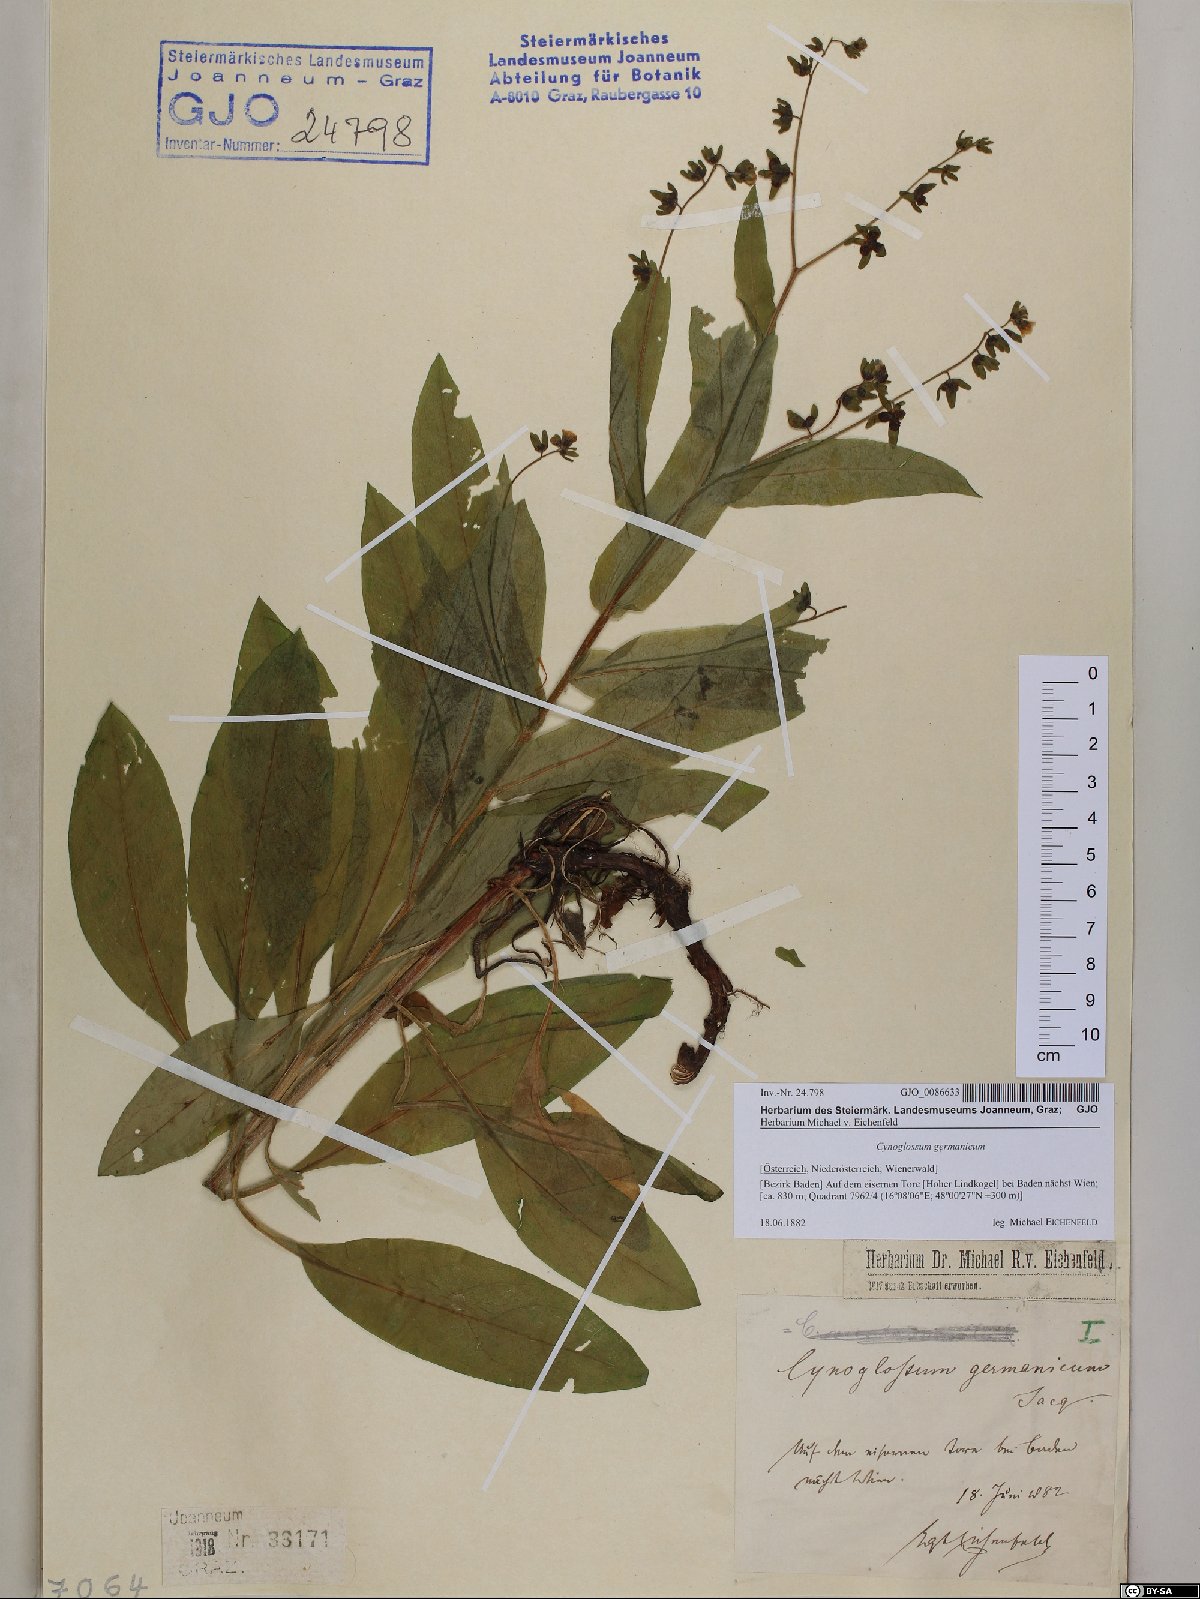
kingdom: Plantae
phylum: Tracheophyta
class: Magnoliopsida
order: Boraginales
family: Boraginaceae
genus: Cynoglossum
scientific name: Cynoglossum germanicum
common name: Green hound's-tongue
